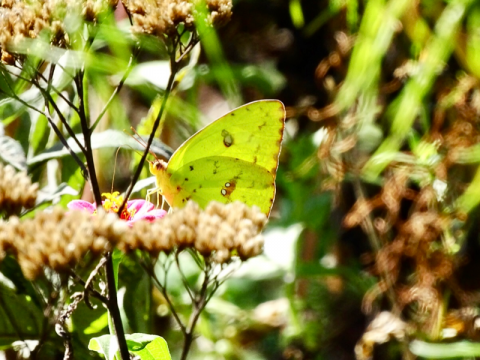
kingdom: Animalia
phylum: Arthropoda
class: Insecta
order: Lepidoptera
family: Pieridae
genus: Phoebis
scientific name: Phoebis sennae
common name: Cloudless Sulphur
